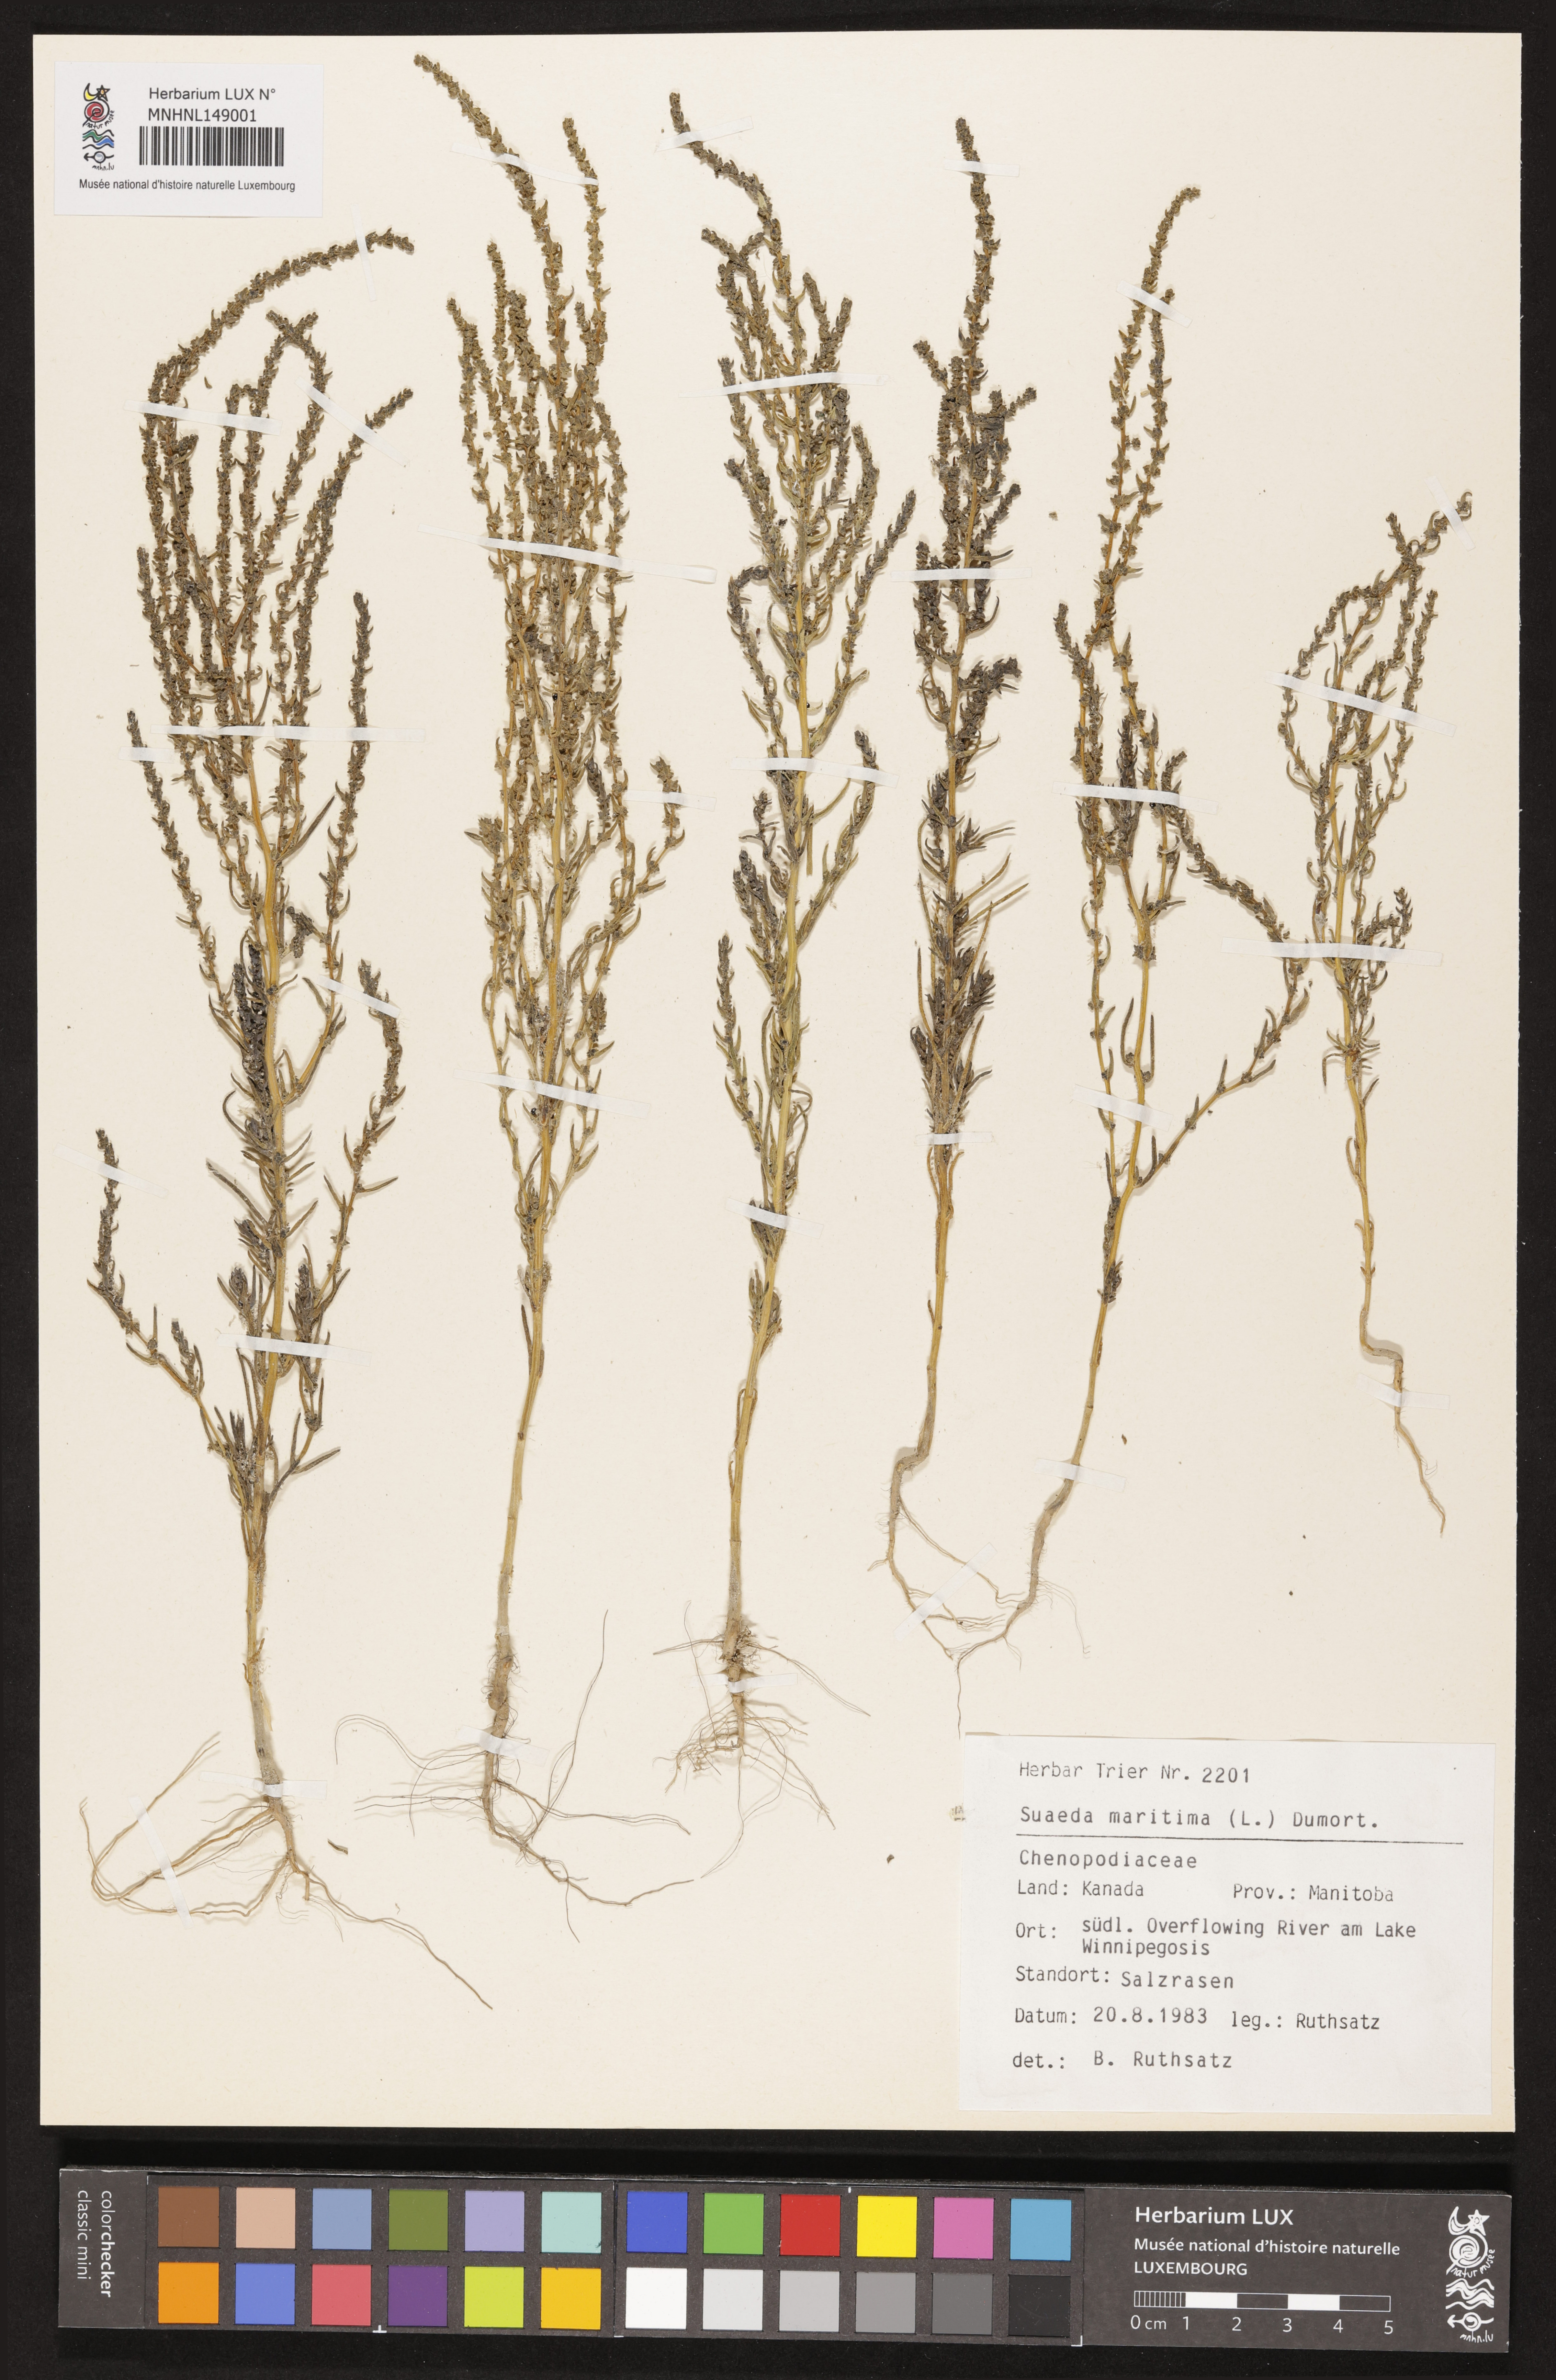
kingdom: Plantae
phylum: Tracheophyta
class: Magnoliopsida
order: Caryophyllales
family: Amaranthaceae
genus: Suaeda
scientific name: Suaeda maritima
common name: Annual sea-blite
